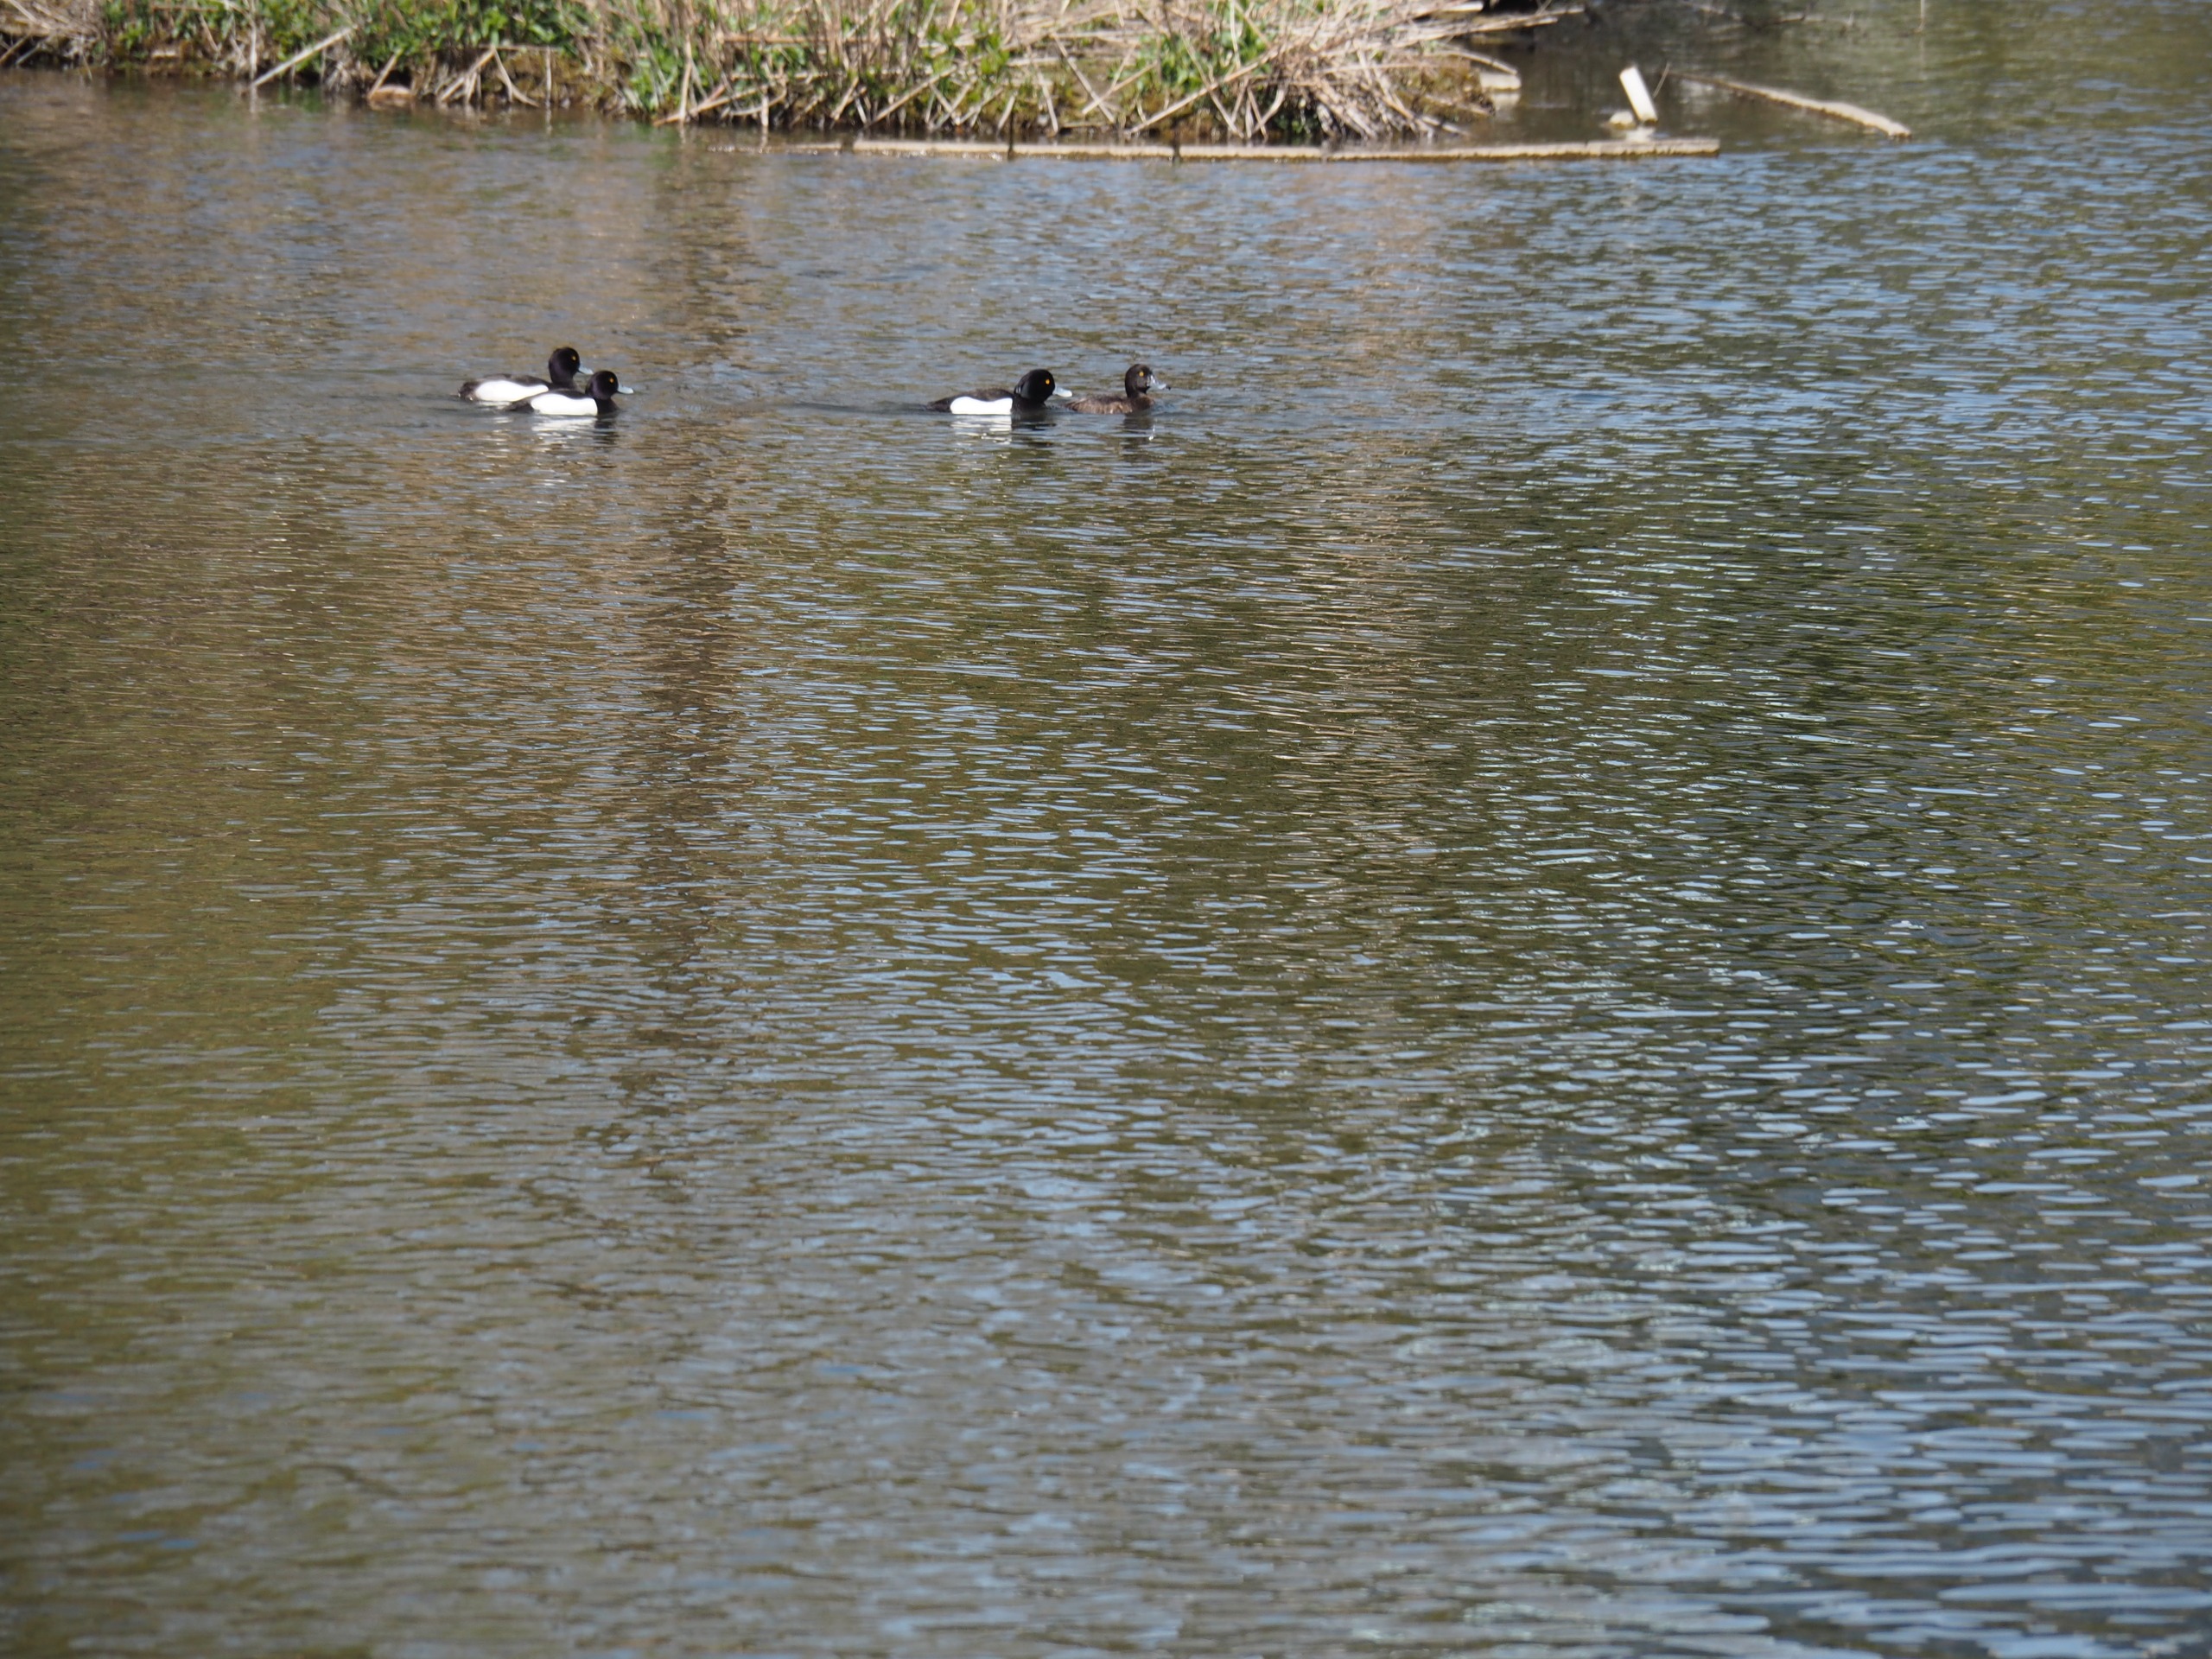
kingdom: Animalia
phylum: Chordata
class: Aves
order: Anseriformes
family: Anatidae
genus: Aythya
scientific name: Aythya fuligula
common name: Troldand
